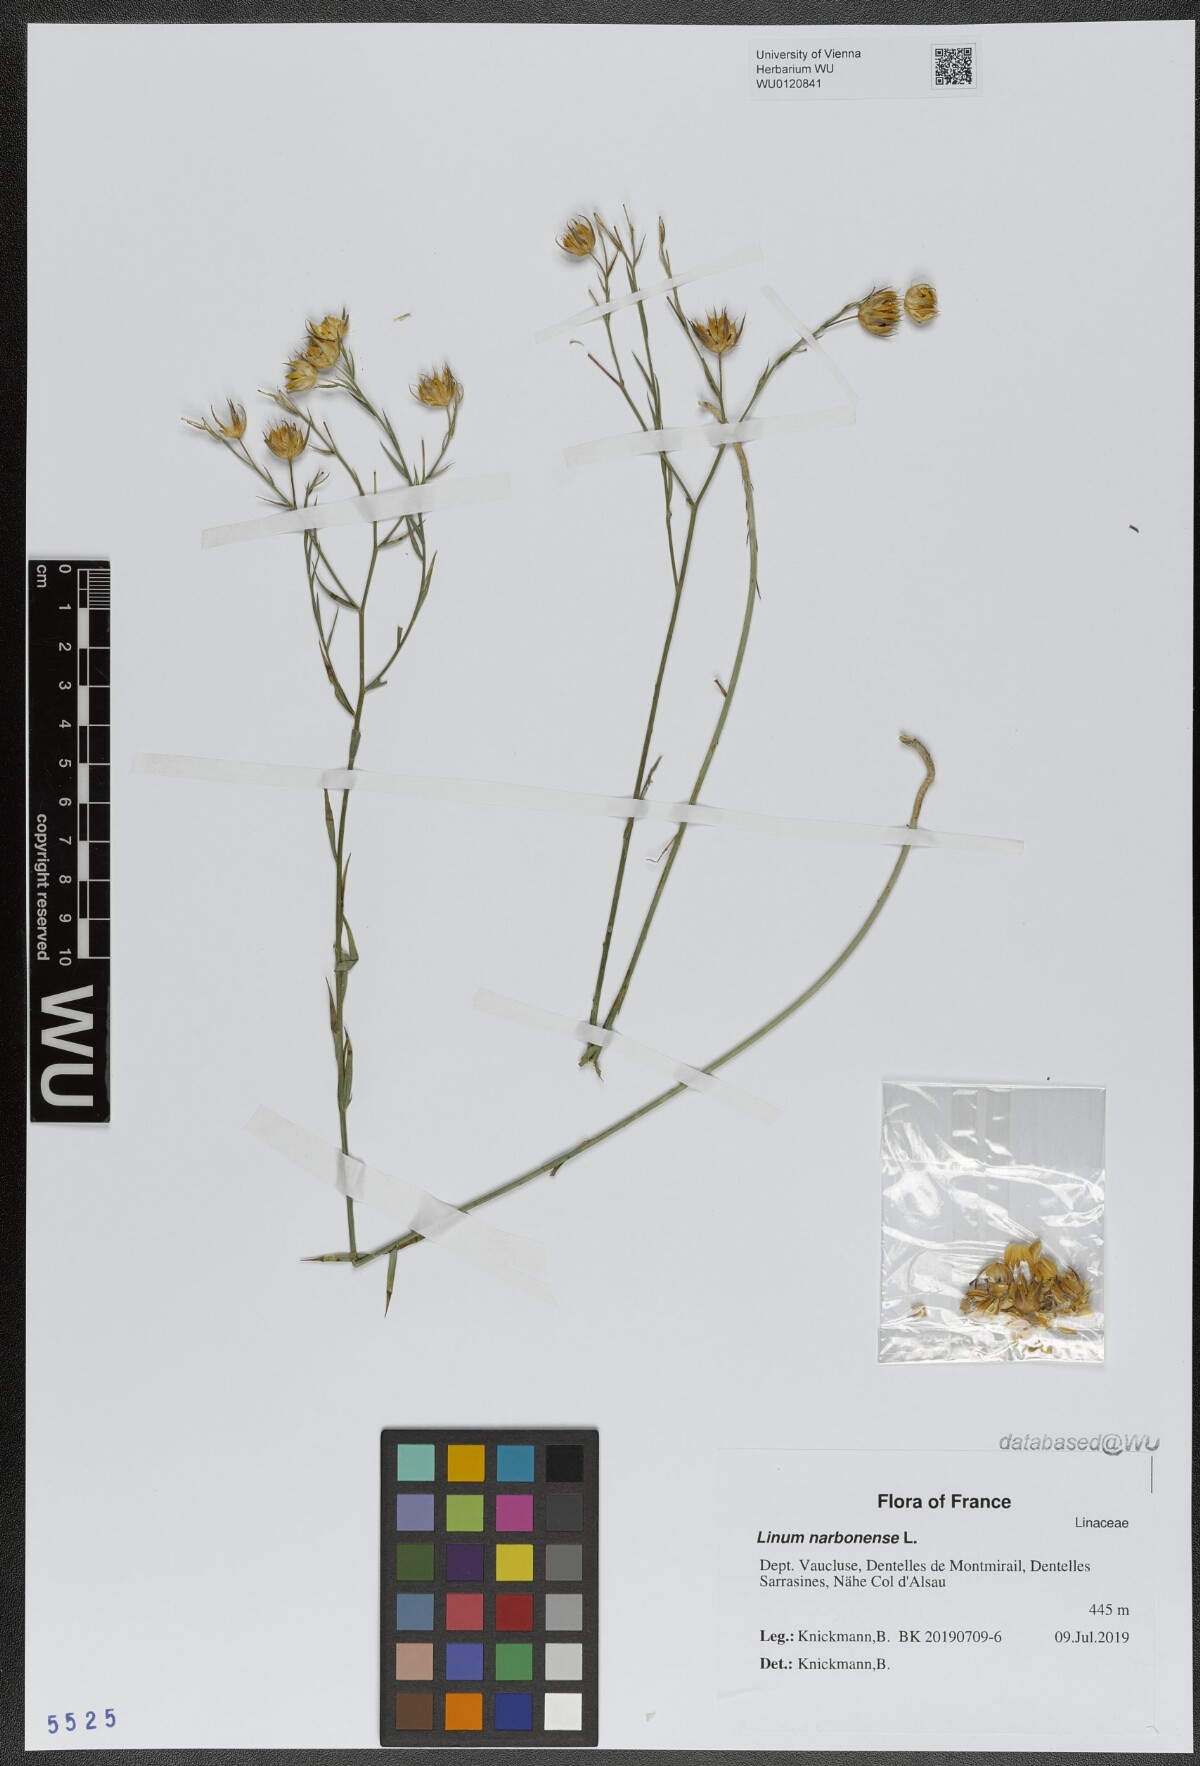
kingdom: Plantae
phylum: Tracheophyta
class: Magnoliopsida
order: Malpighiales
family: Linaceae
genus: Linum
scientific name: Linum narbonense
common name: Flax
